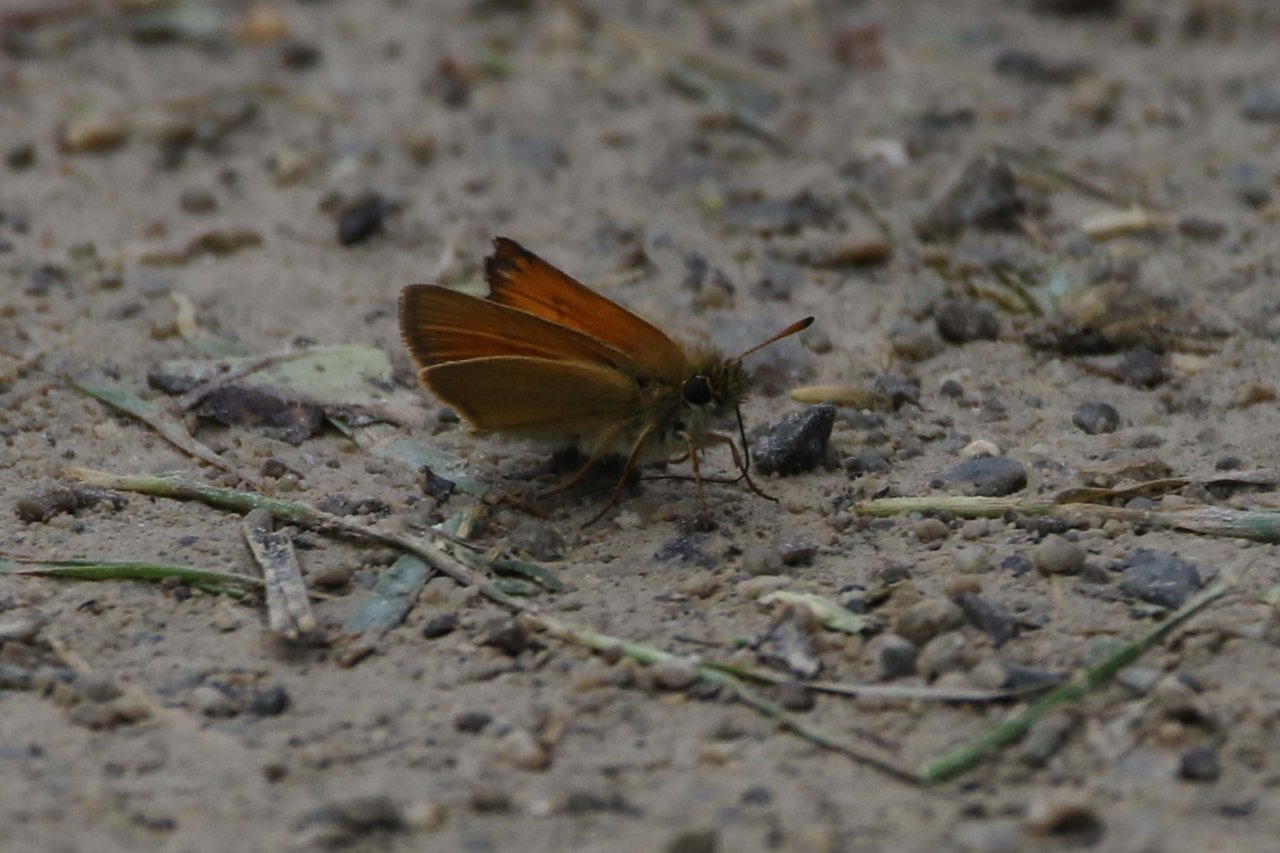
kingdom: Animalia
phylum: Arthropoda
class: Insecta
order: Lepidoptera
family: Hesperiidae
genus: Thymelicus
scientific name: Thymelicus lineola
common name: European Skipper
